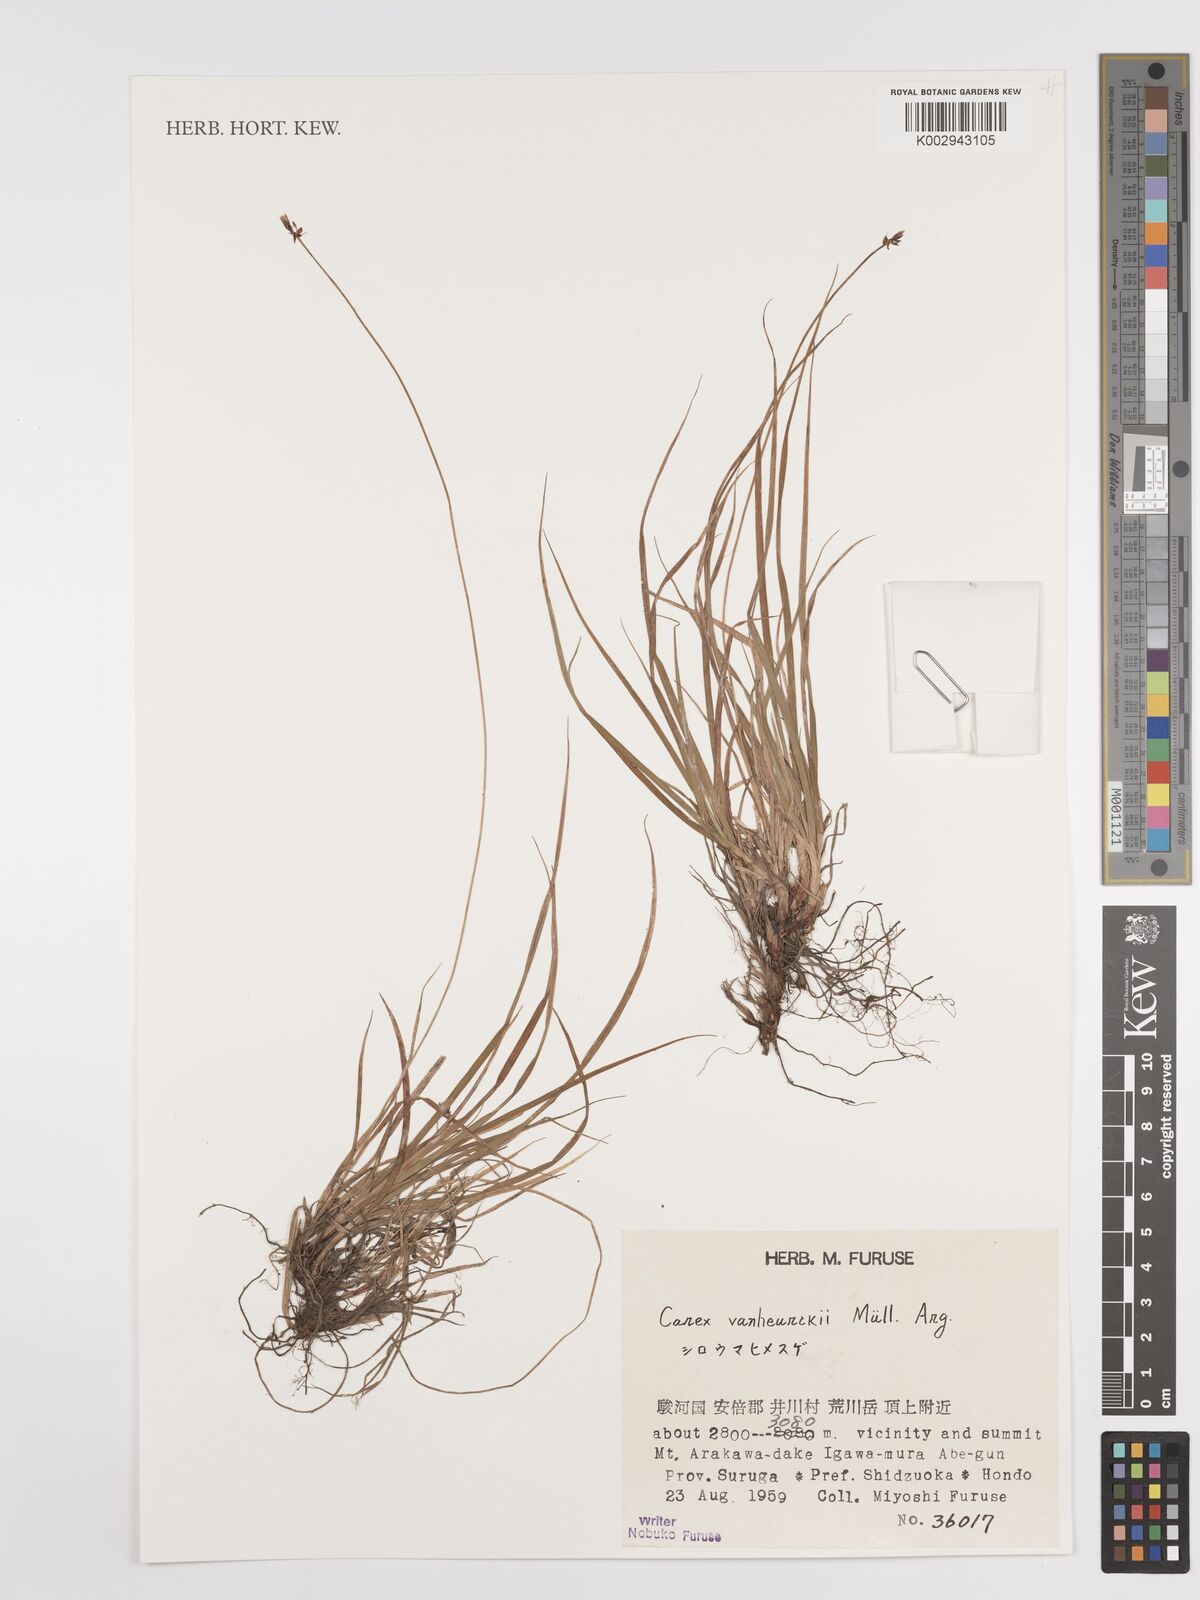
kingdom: Plantae
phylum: Tracheophyta
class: Liliopsida
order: Poales
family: Cyperaceae
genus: Carex
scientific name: Carex vanheurckii
